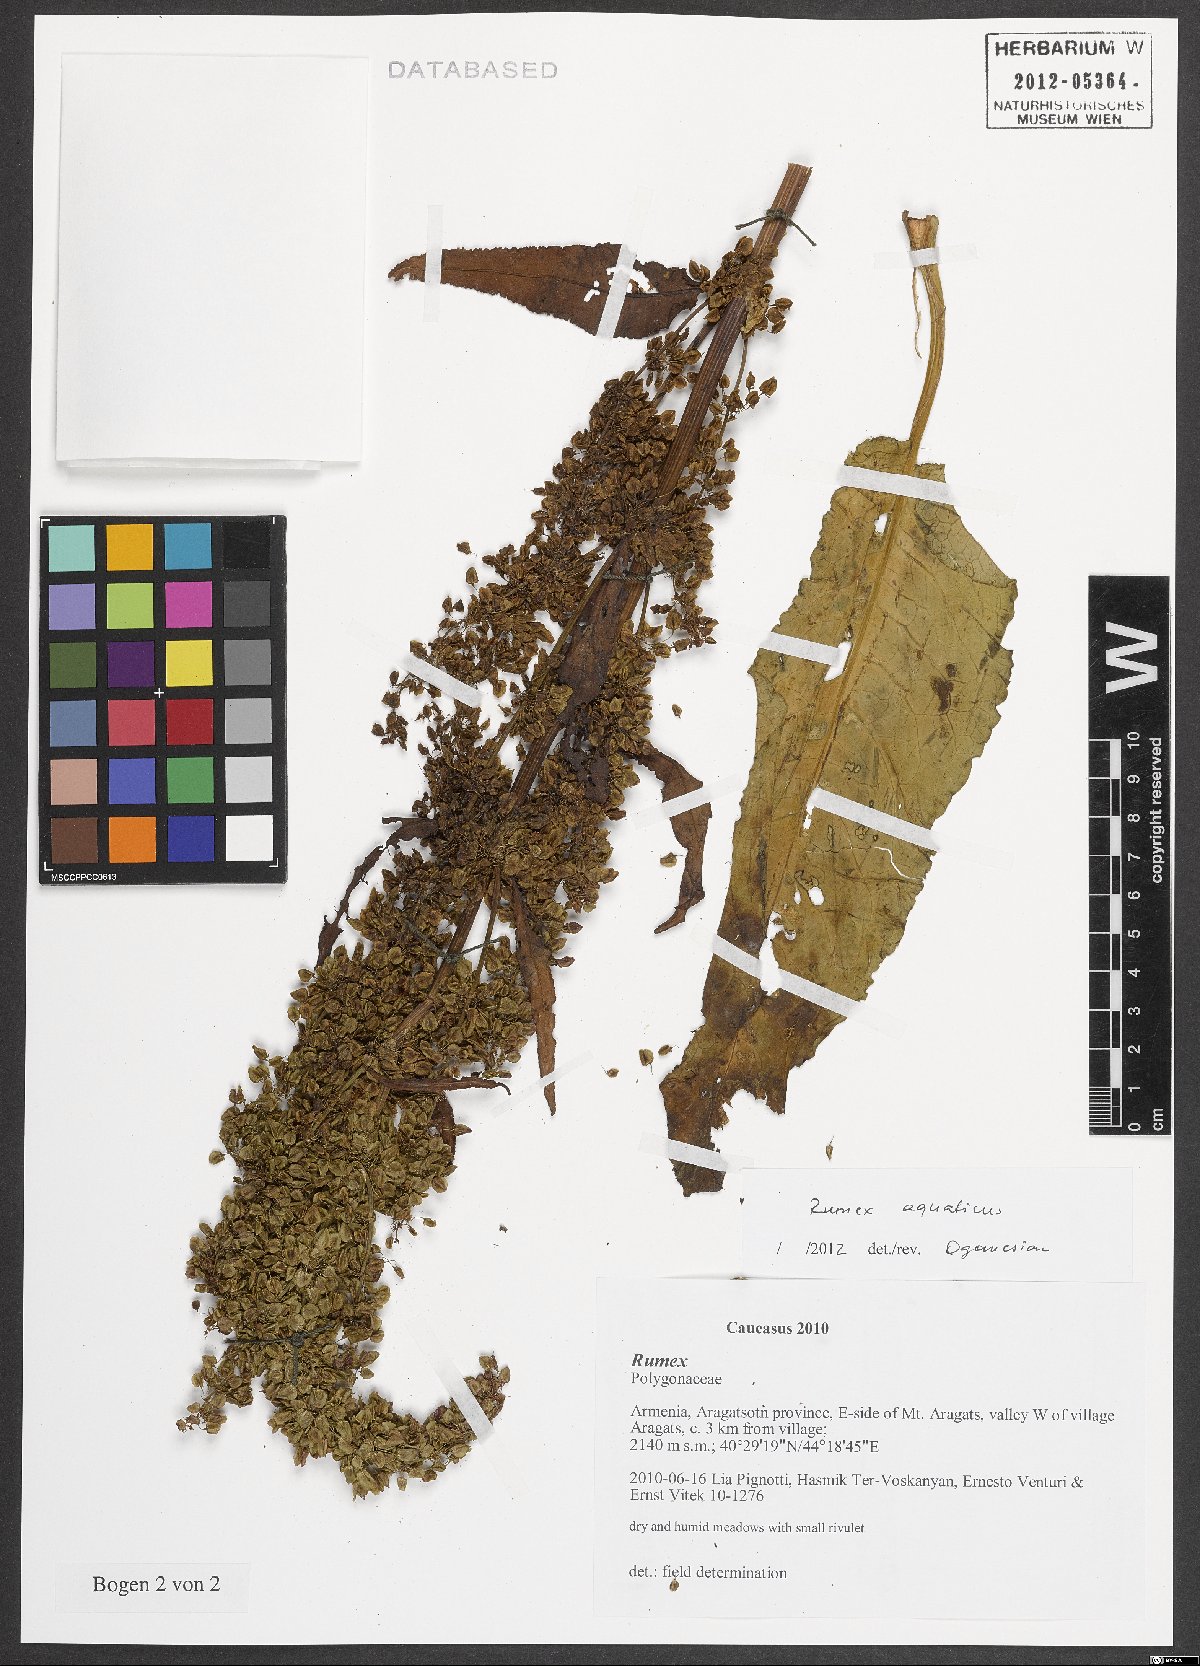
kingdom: Plantae
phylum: Tracheophyta
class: Magnoliopsida
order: Caryophyllales
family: Polygonaceae
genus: Rumex
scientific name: Rumex aquaticus
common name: Scottish dock
